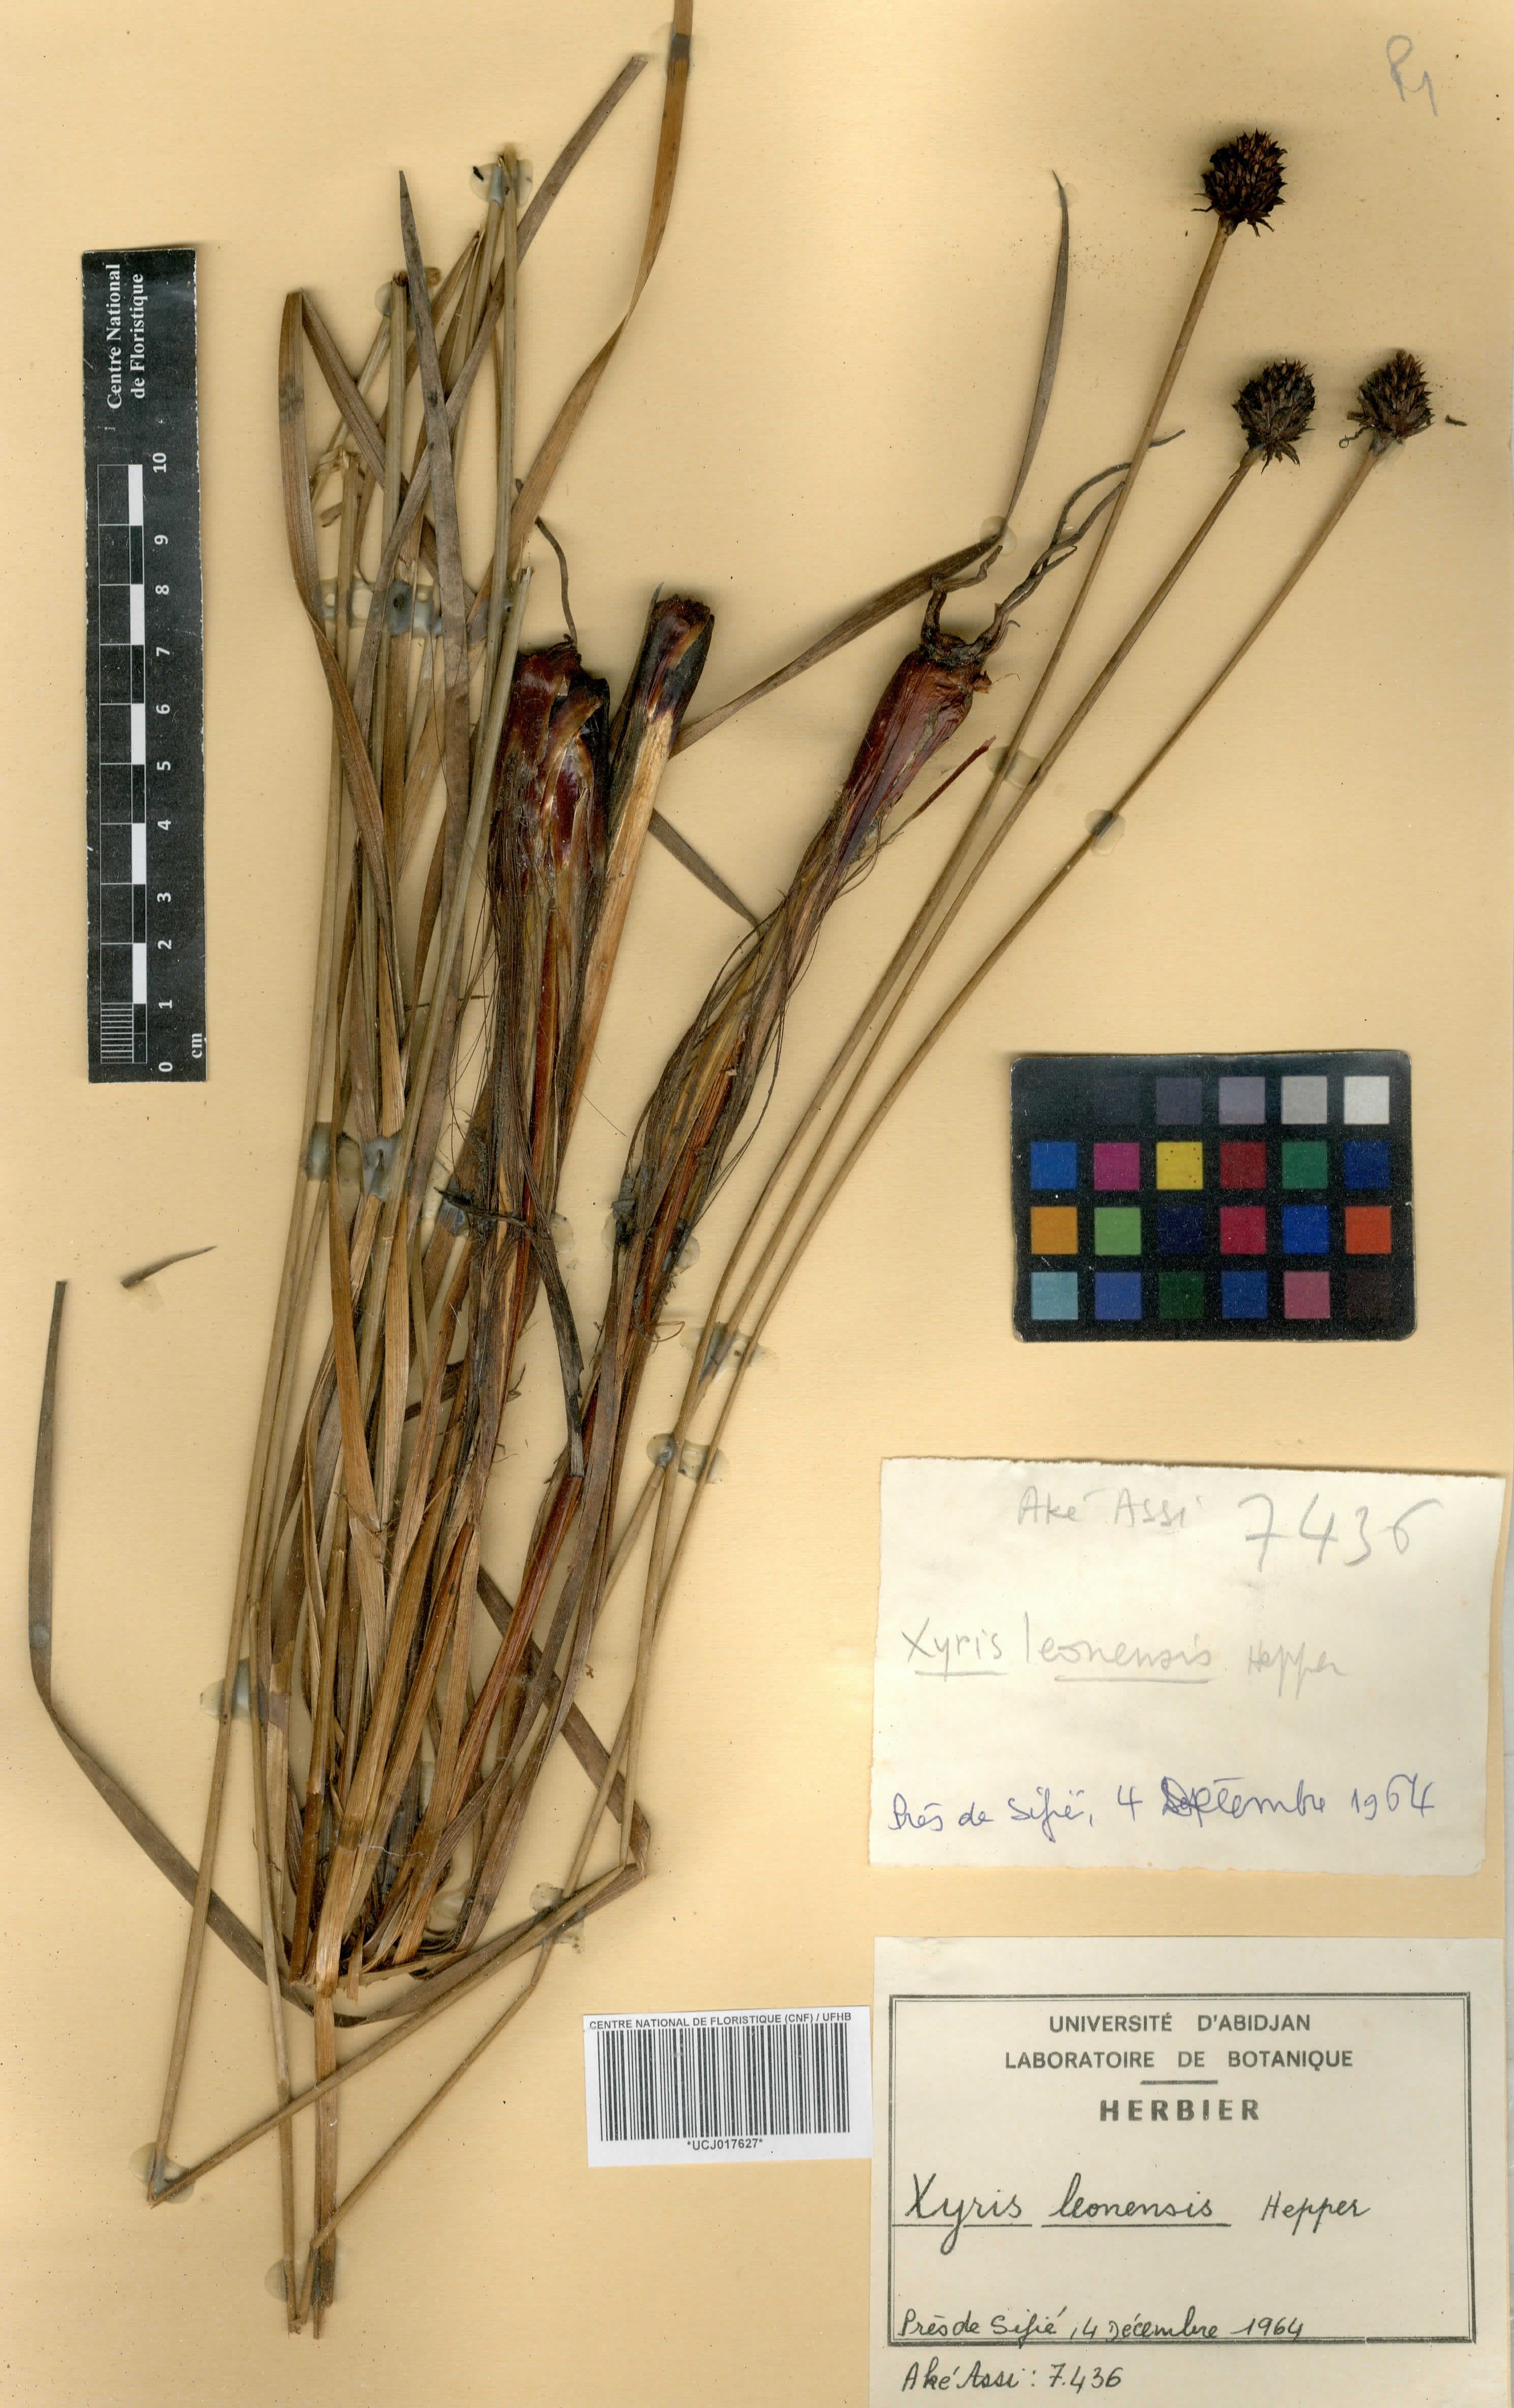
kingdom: Plantae
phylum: Tracheophyta
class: Liliopsida
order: Poales
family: Xyridaceae
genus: Xyris
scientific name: Xyris leonensis
